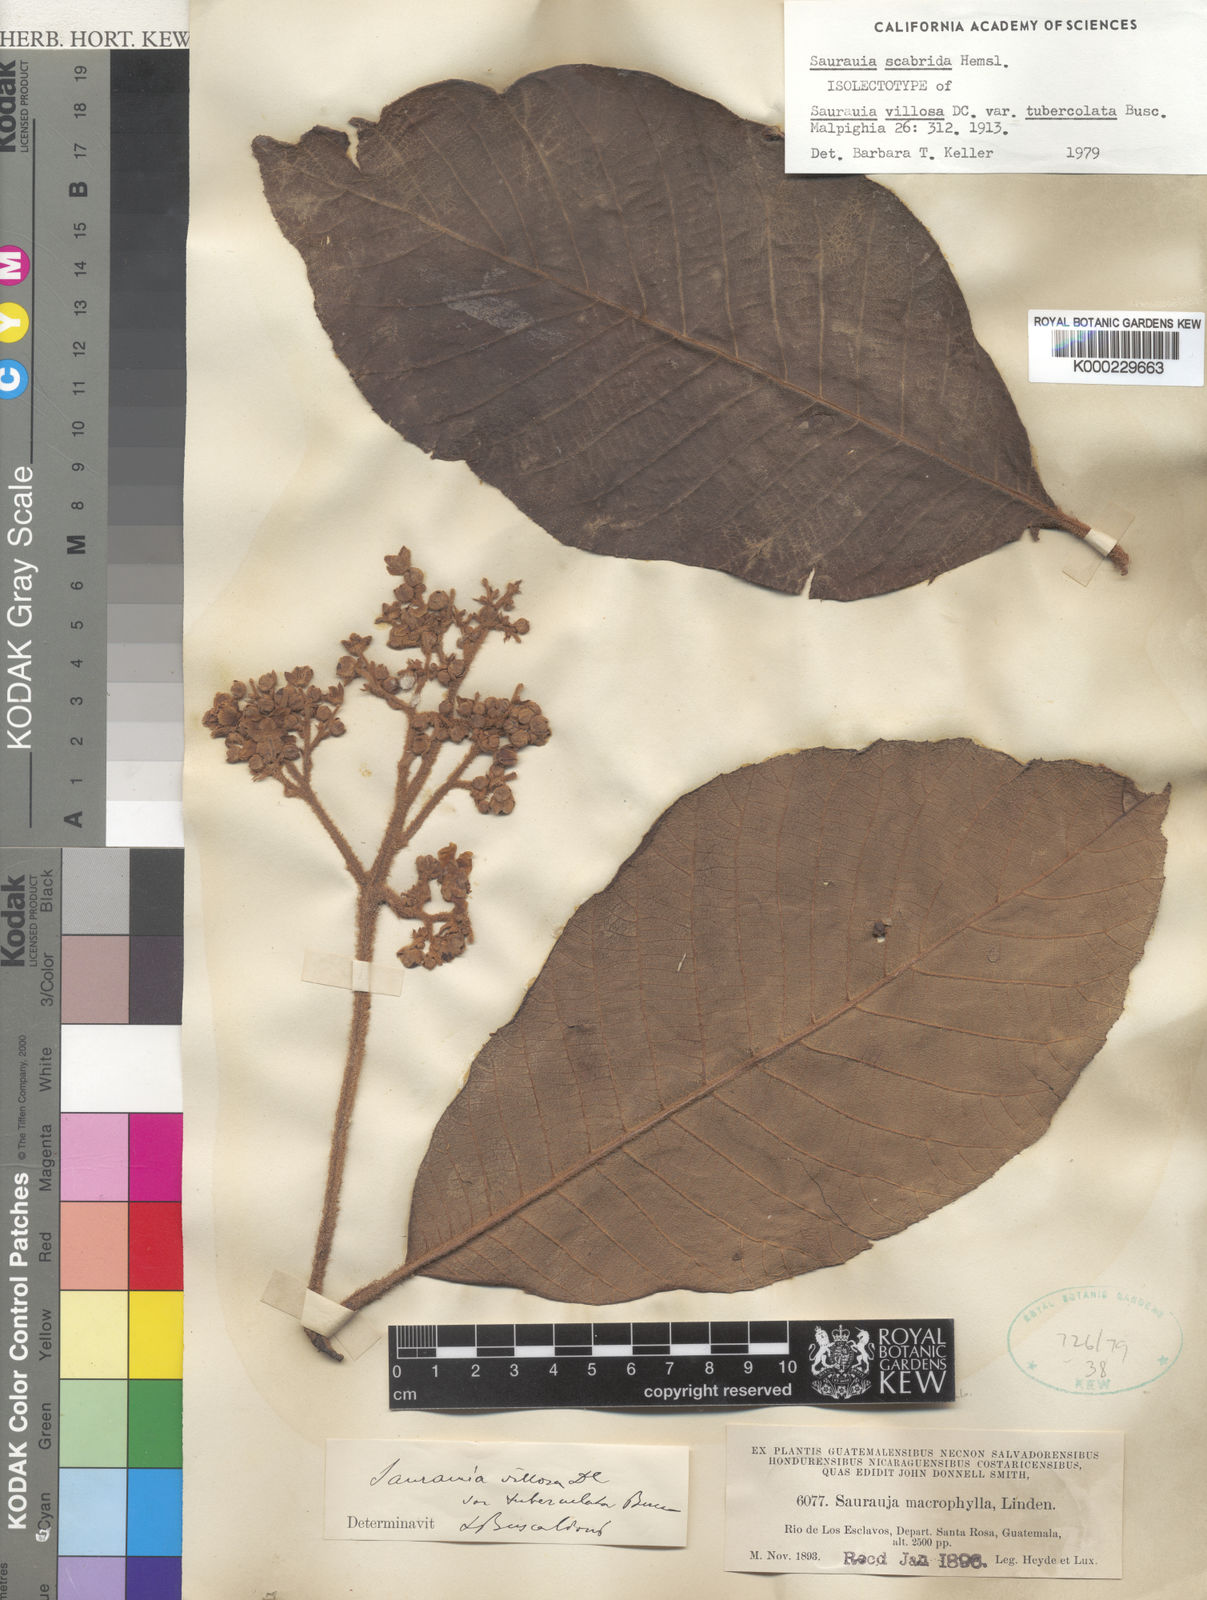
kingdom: Plantae
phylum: Tracheophyta
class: Magnoliopsida
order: Ericales
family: Actinidiaceae
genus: Saurauia
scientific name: Saurauia scabrida
